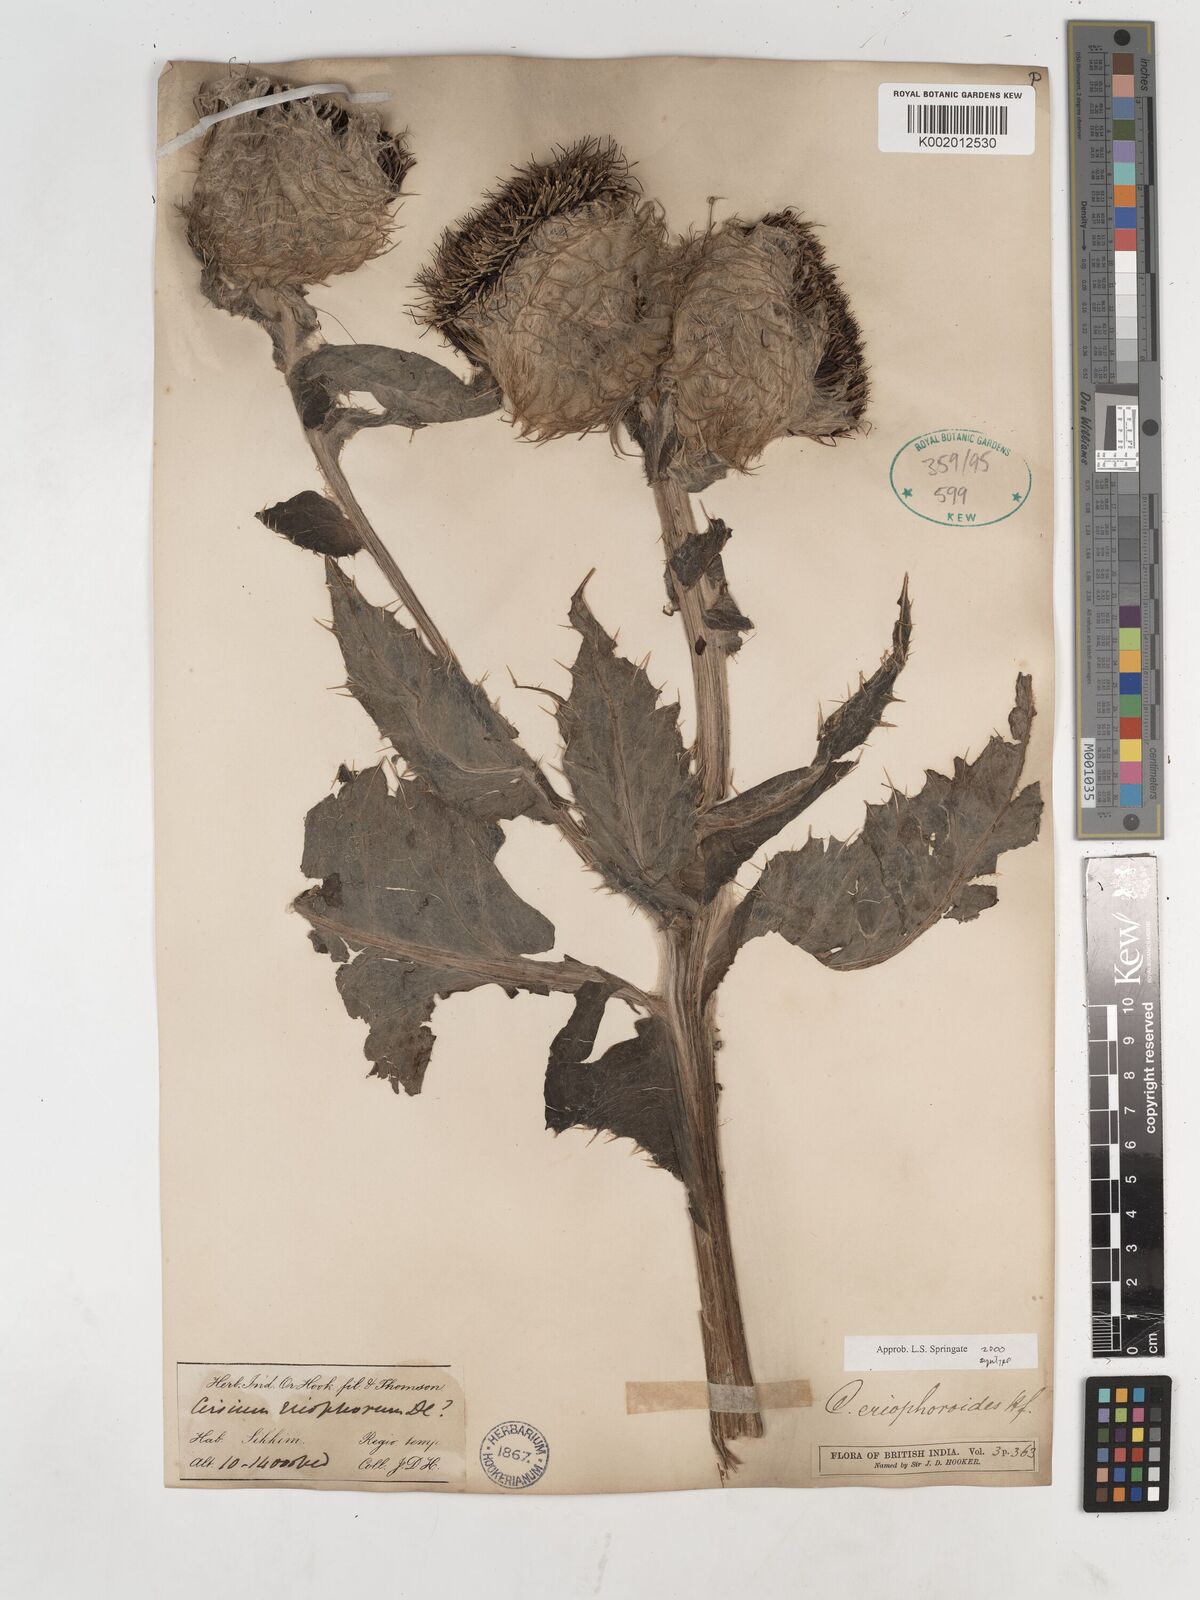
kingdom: Plantae
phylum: Tracheophyta
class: Magnoliopsida
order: Asterales
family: Asteraceae
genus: Cirsium
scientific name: Cirsium eriophoroides
